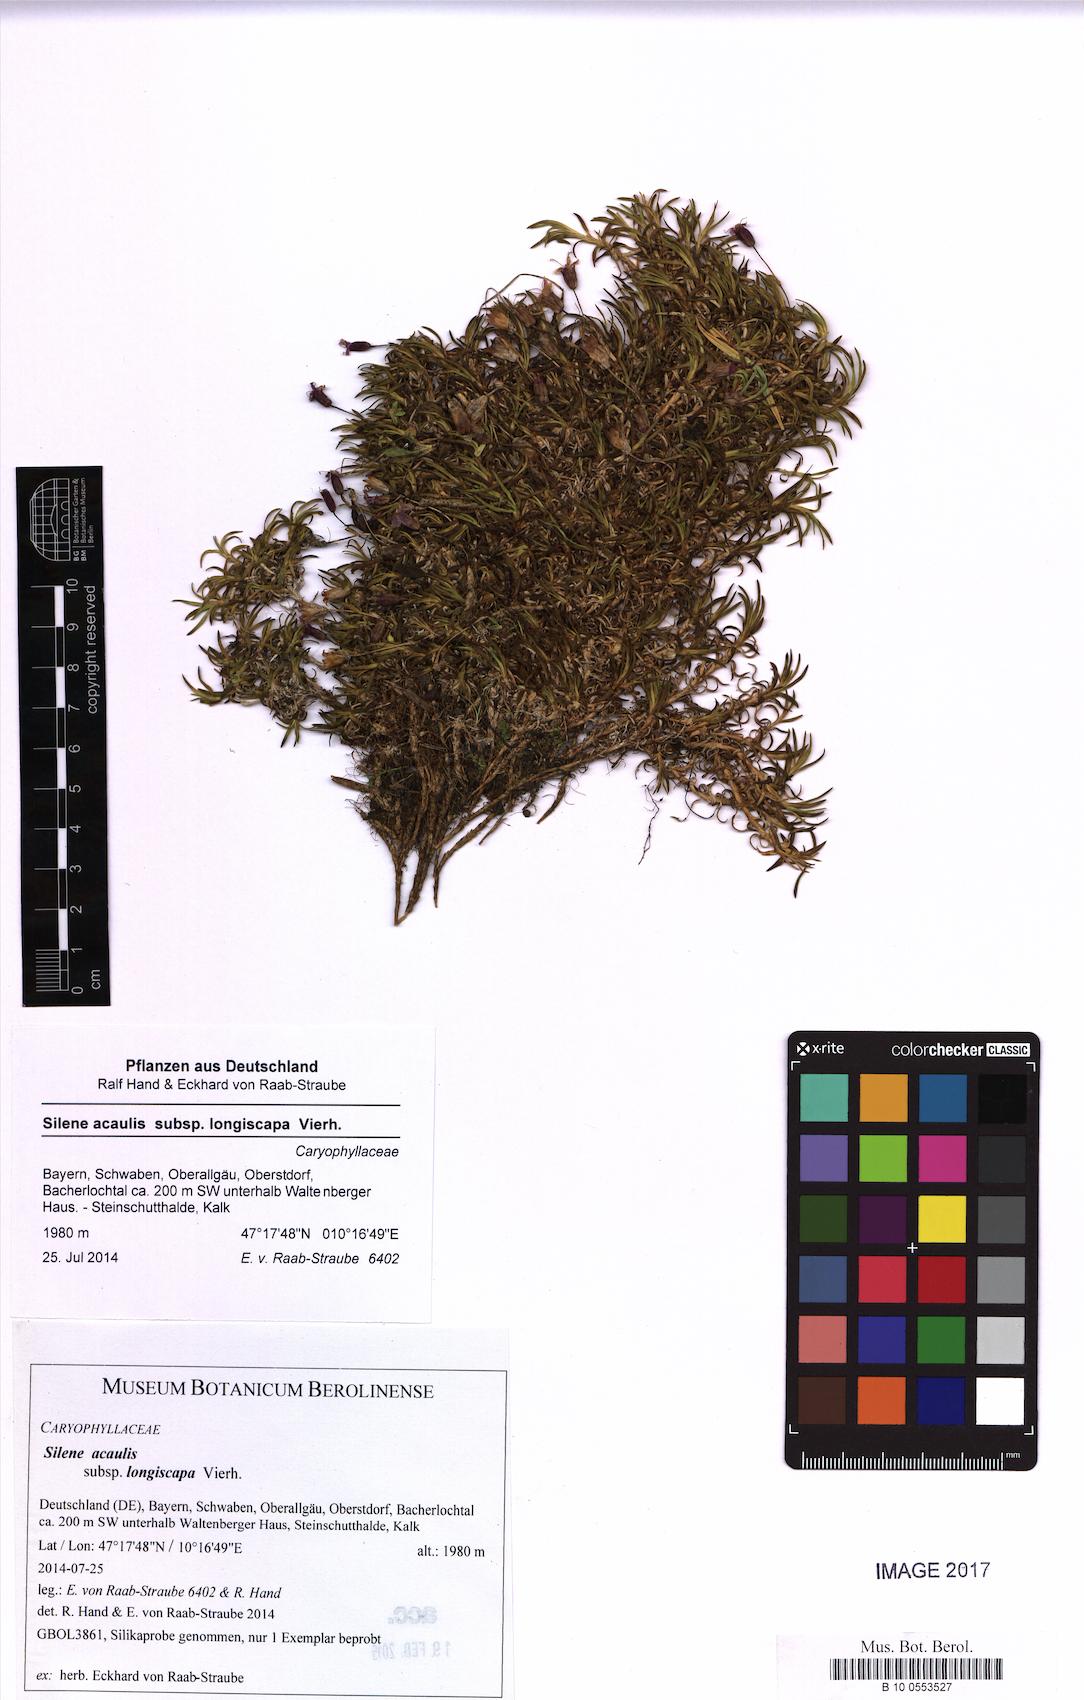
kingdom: Plantae
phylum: Tracheophyta
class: Magnoliopsida
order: Caryophyllales
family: Caryophyllaceae
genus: Silene
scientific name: Silene acaulis
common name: Moss campion
